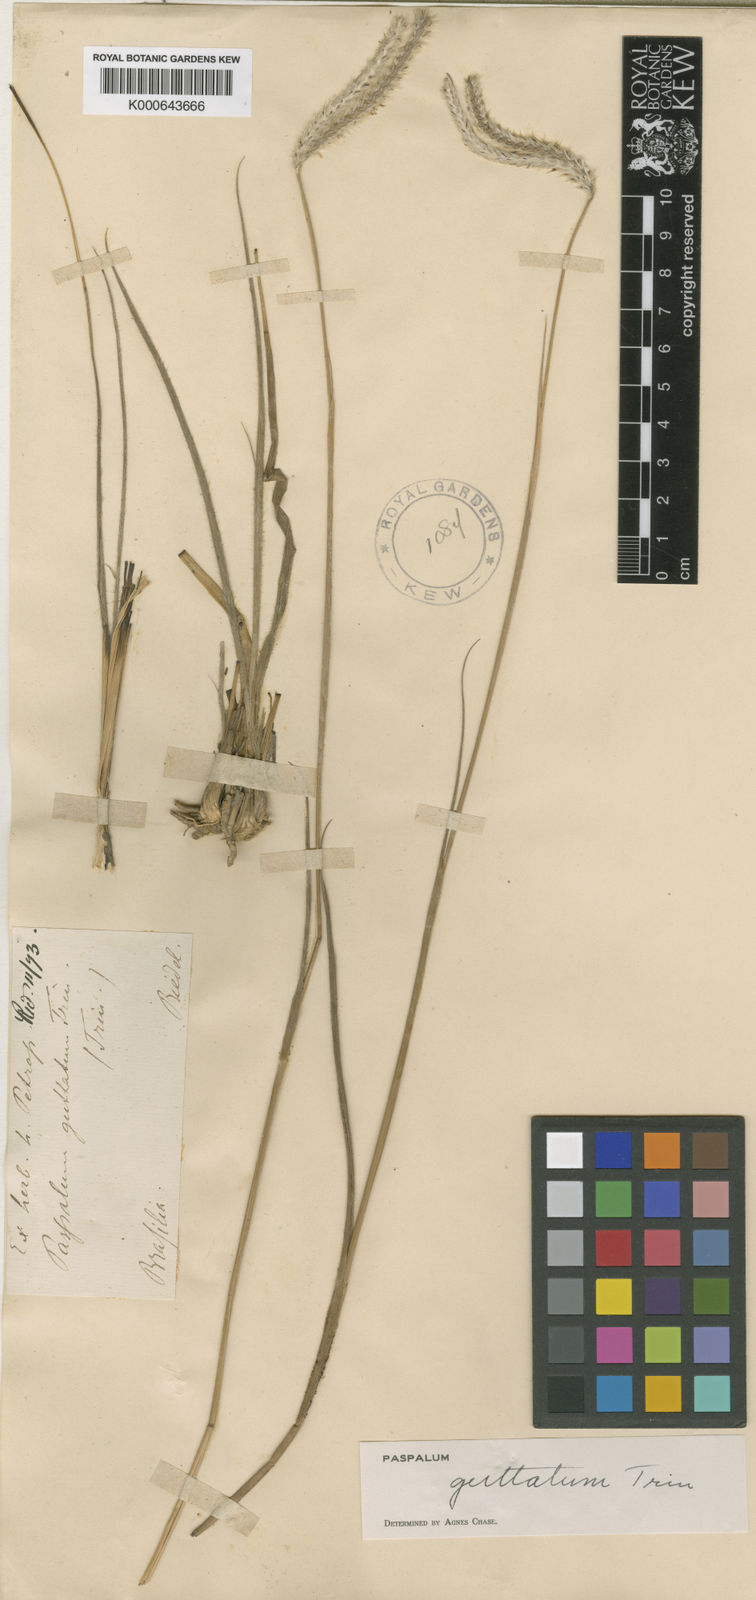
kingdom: Plantae
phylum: Tracheophyta
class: Liliopsida
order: Poales
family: Poaceae
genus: Paspalum
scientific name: Paspalum guttatum
